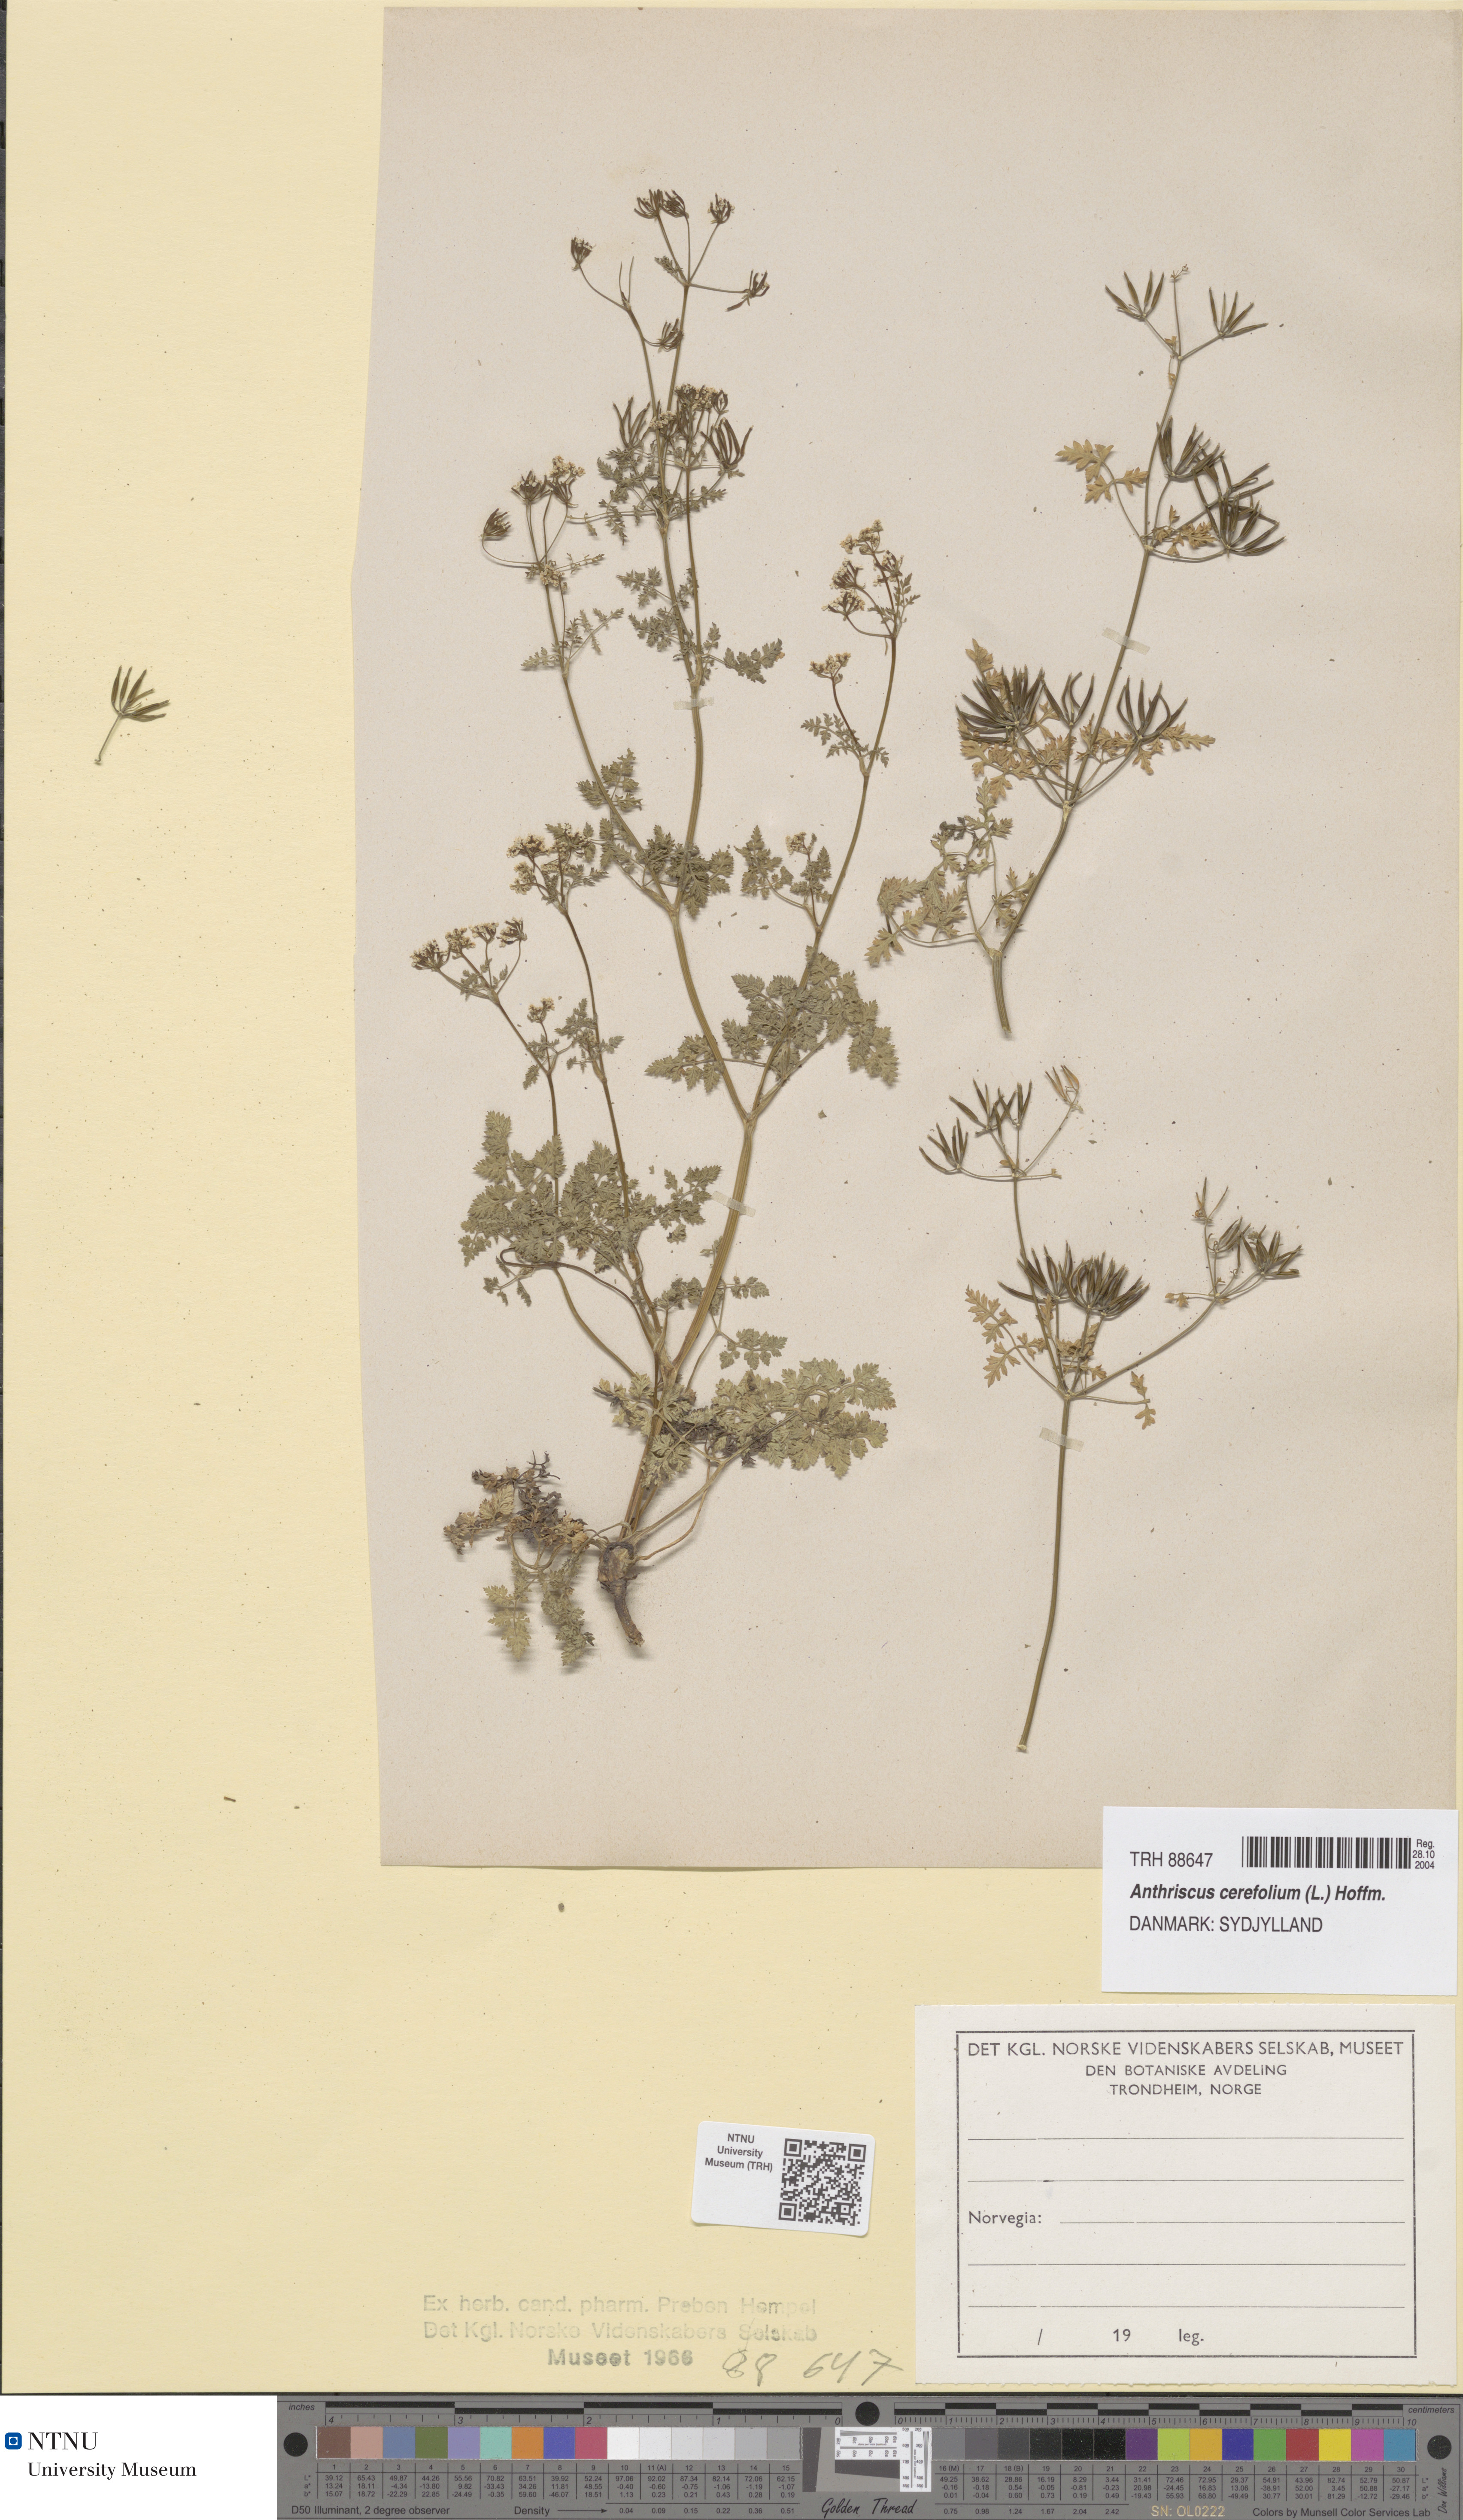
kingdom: Plantae
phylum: Tracheophyta
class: Magnoliopsida
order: Apiales
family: Apiaceae
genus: Anthriscus
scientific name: Anthriscus cerefolium
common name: Garden chervil
